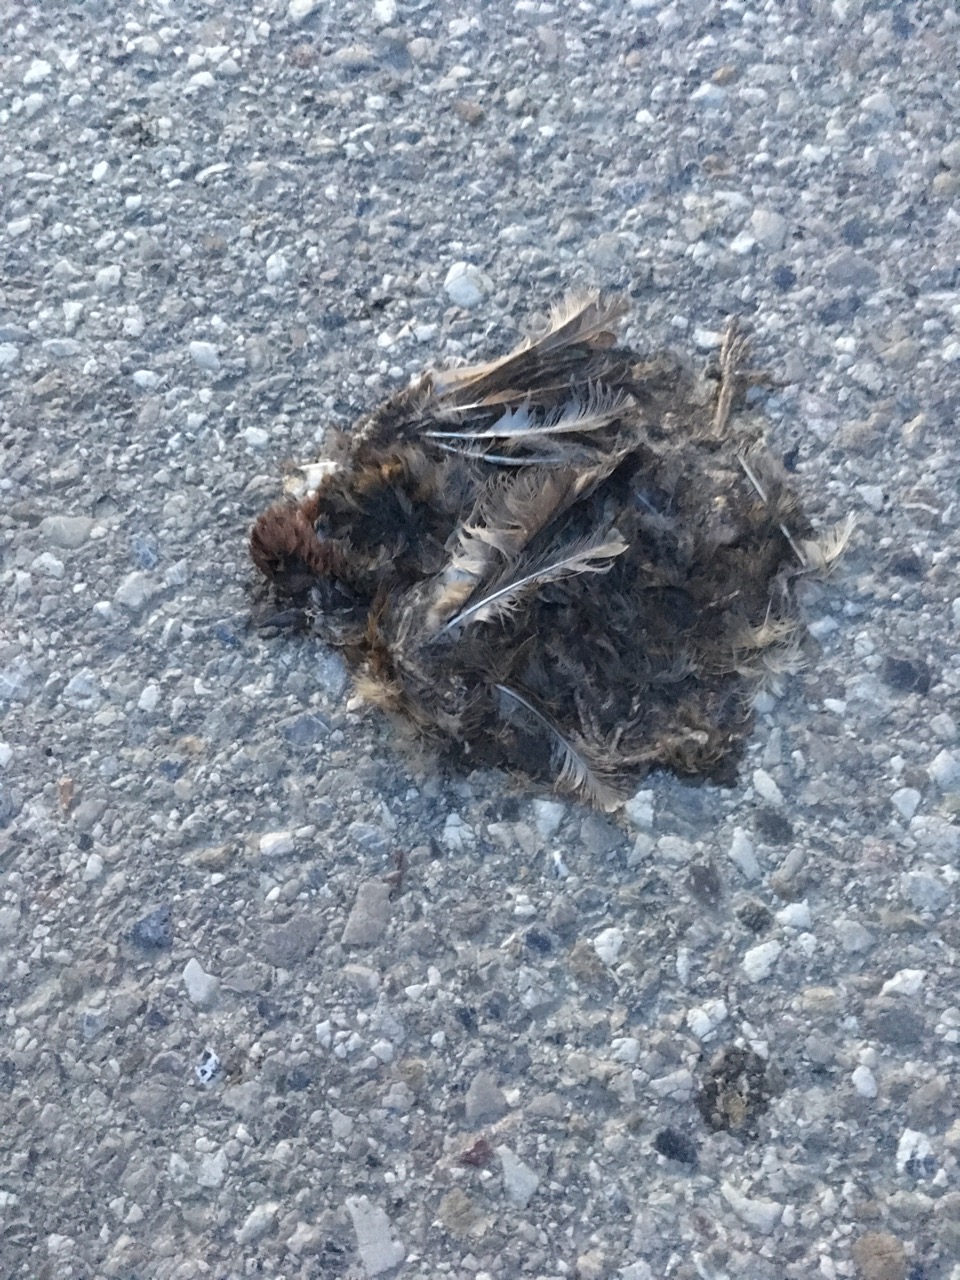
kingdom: Animalia
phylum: Chordata
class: Aves
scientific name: Aves
